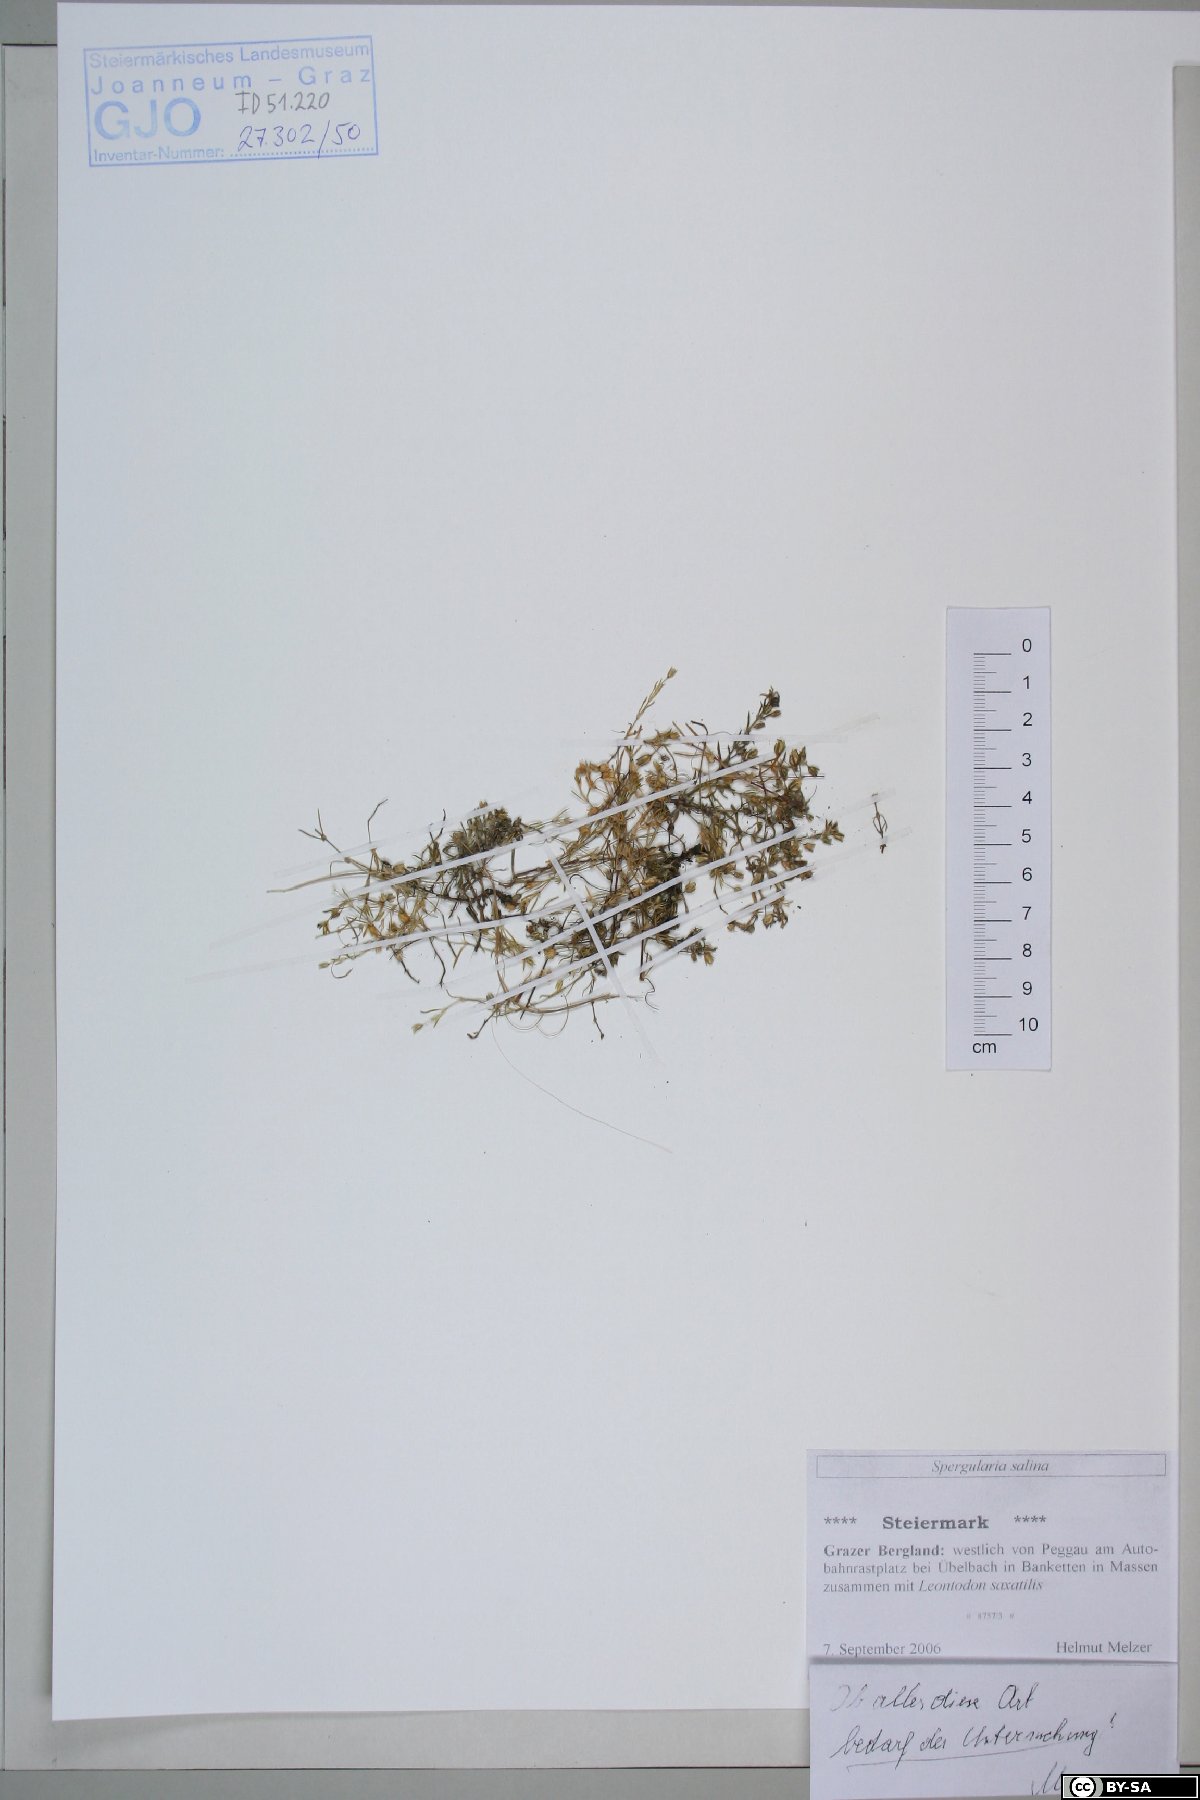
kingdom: Plantae
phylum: Tracheophyta
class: Magnoliopsida
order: Caryophyllales
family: Caryophyllaceae
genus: Spergularia
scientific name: Spergularia marina
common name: Lesser sea-spurrey
